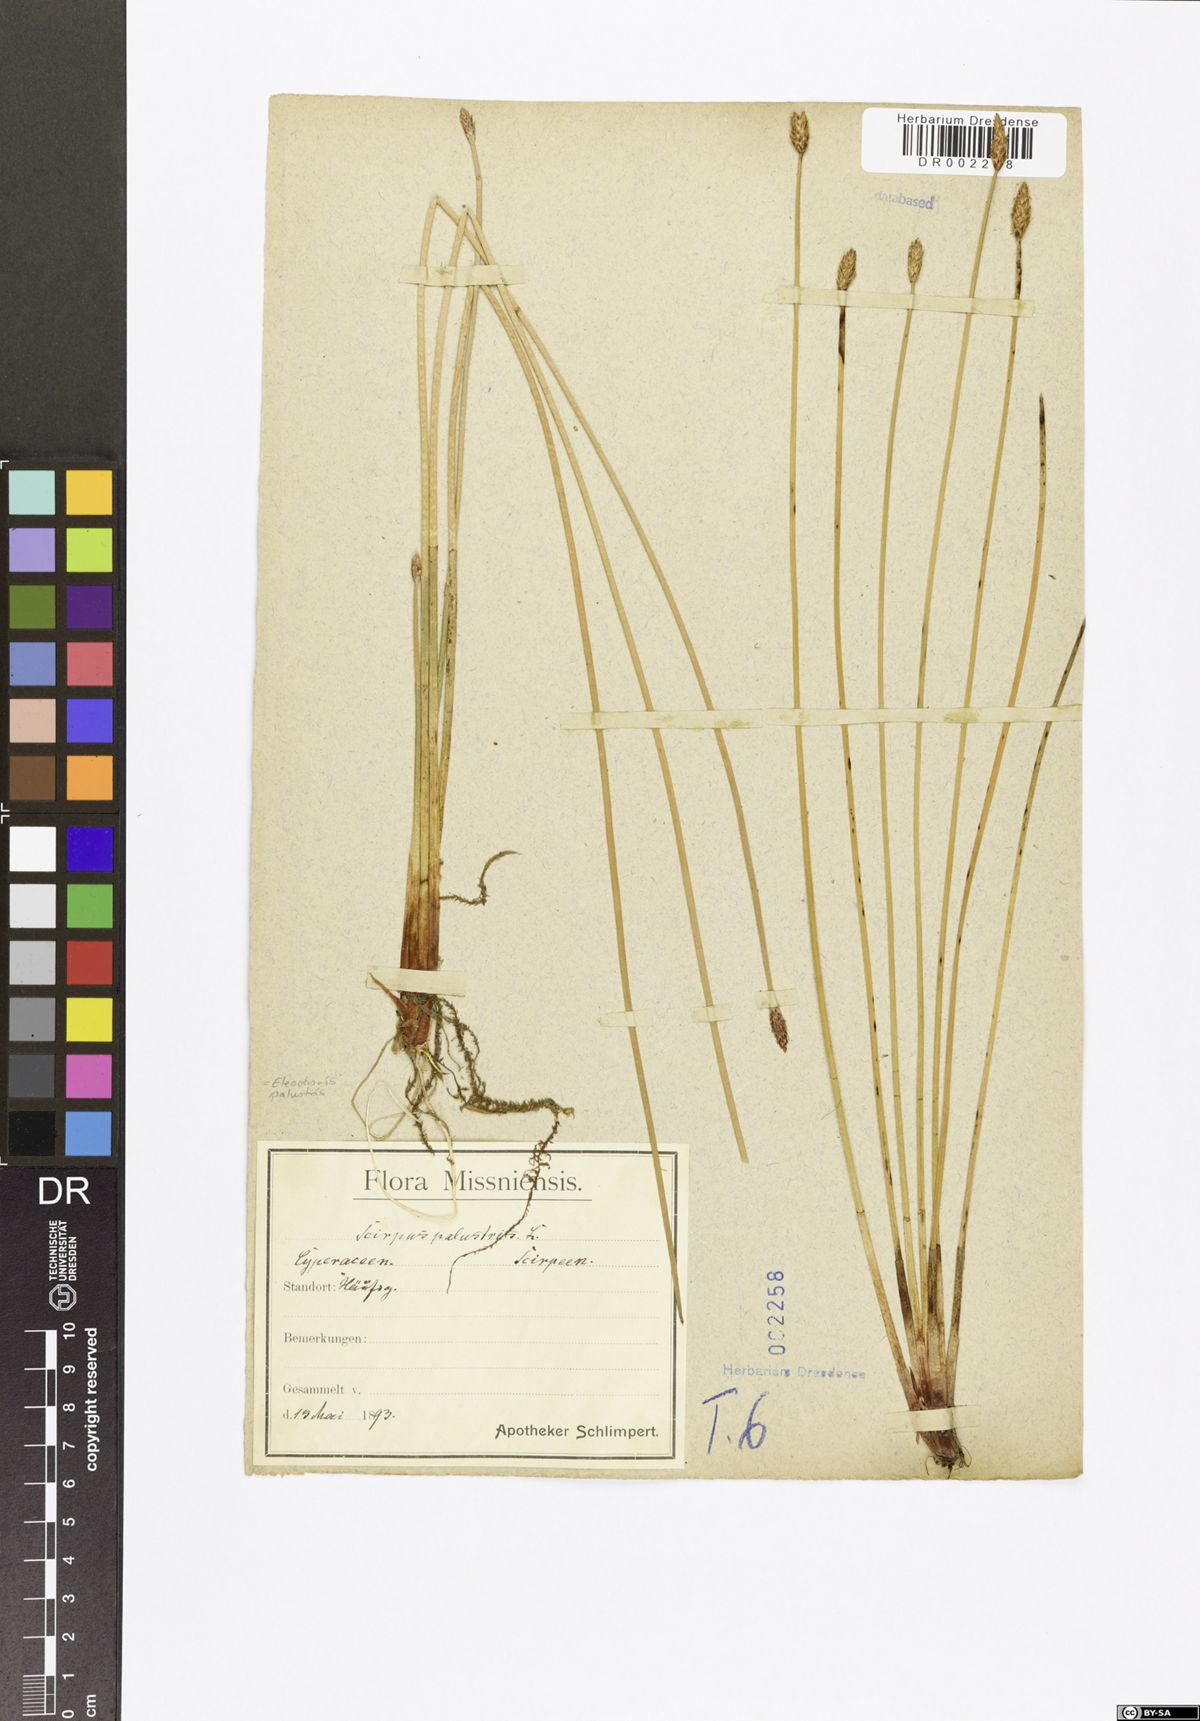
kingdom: Plantae
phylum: Tracheophyta
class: Liliopsida
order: Poales
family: Cyperaceae
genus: Eleocharis
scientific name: Eleocharis palustris
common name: Common spike-rush
